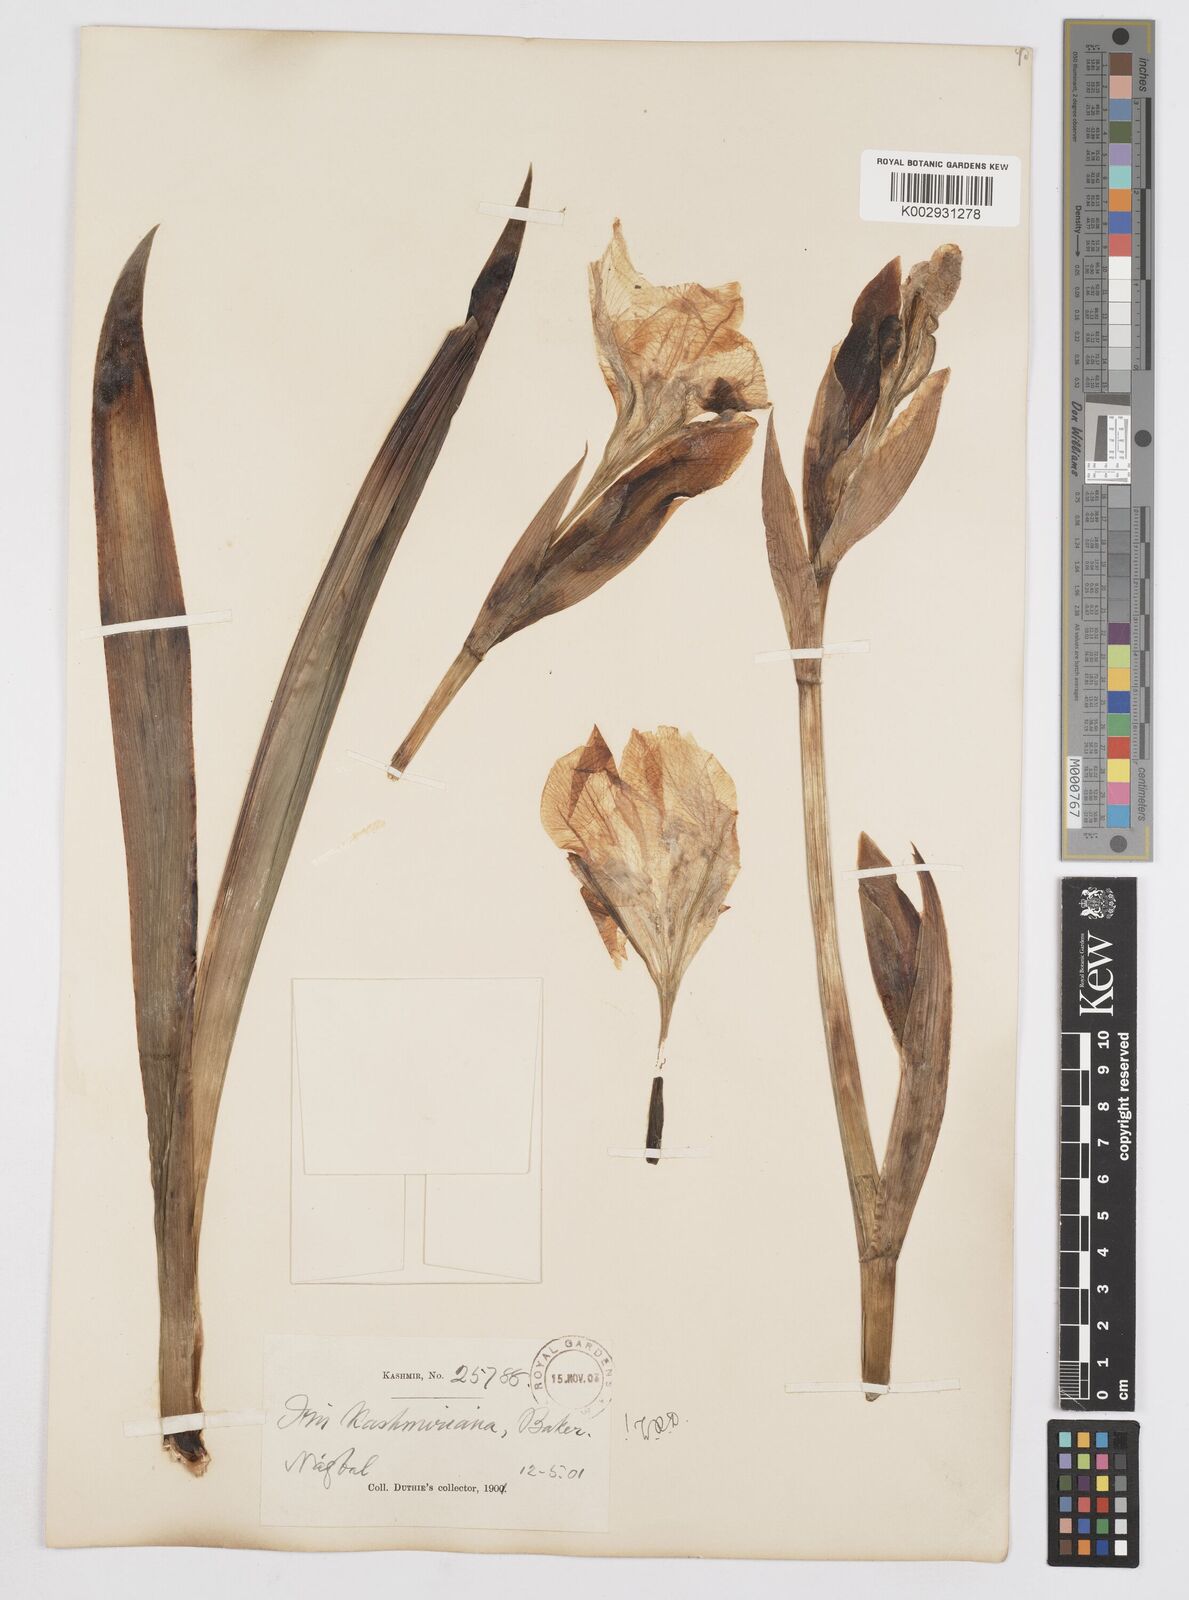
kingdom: Plantae
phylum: Tracheophyta
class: Liliopsida
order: Asparagales
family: Iridaceae
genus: Iris
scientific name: Iris kashmiriana
